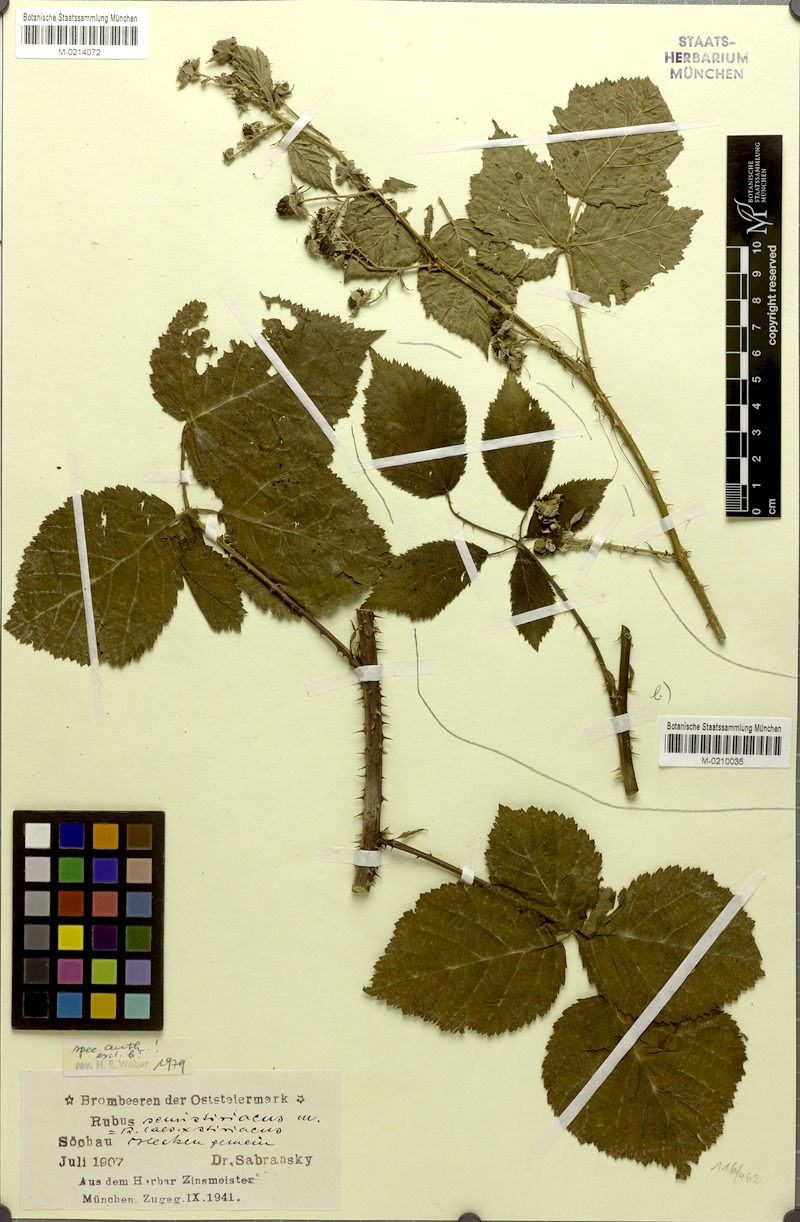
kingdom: Plantae
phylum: Tracheophyta
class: Magnoliopsida
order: Rosales
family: Rosaceae
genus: Rubus
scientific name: Rubus
